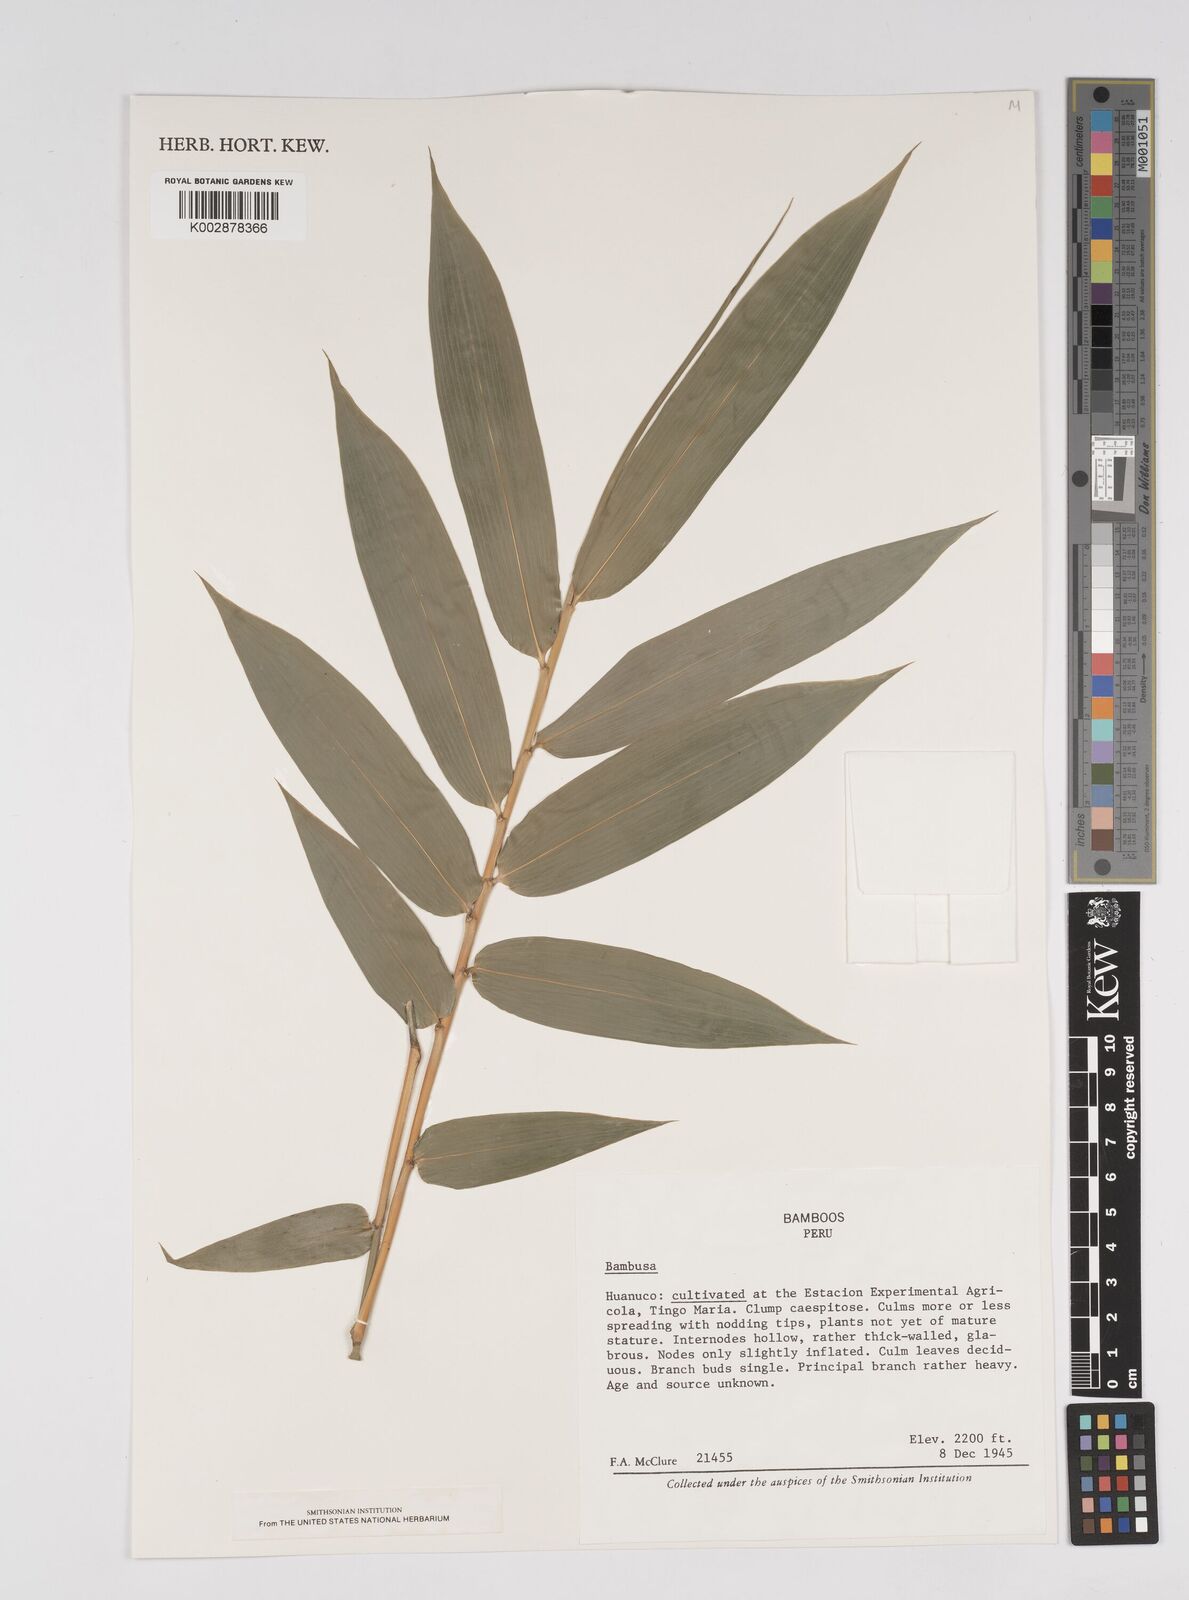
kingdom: Plantae
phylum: Tracheophyta
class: Liliopsida
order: Poales
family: Poaceae
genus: Bambusa
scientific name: Bambusa
